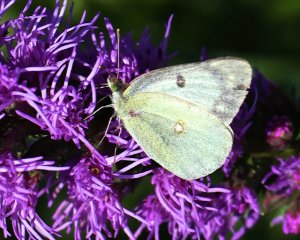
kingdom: Animalia
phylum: Arthropoda
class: Insecta
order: Lepidoptera
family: Pieridae
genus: Colias
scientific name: Colias philodice
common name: Clouded Sulphur
